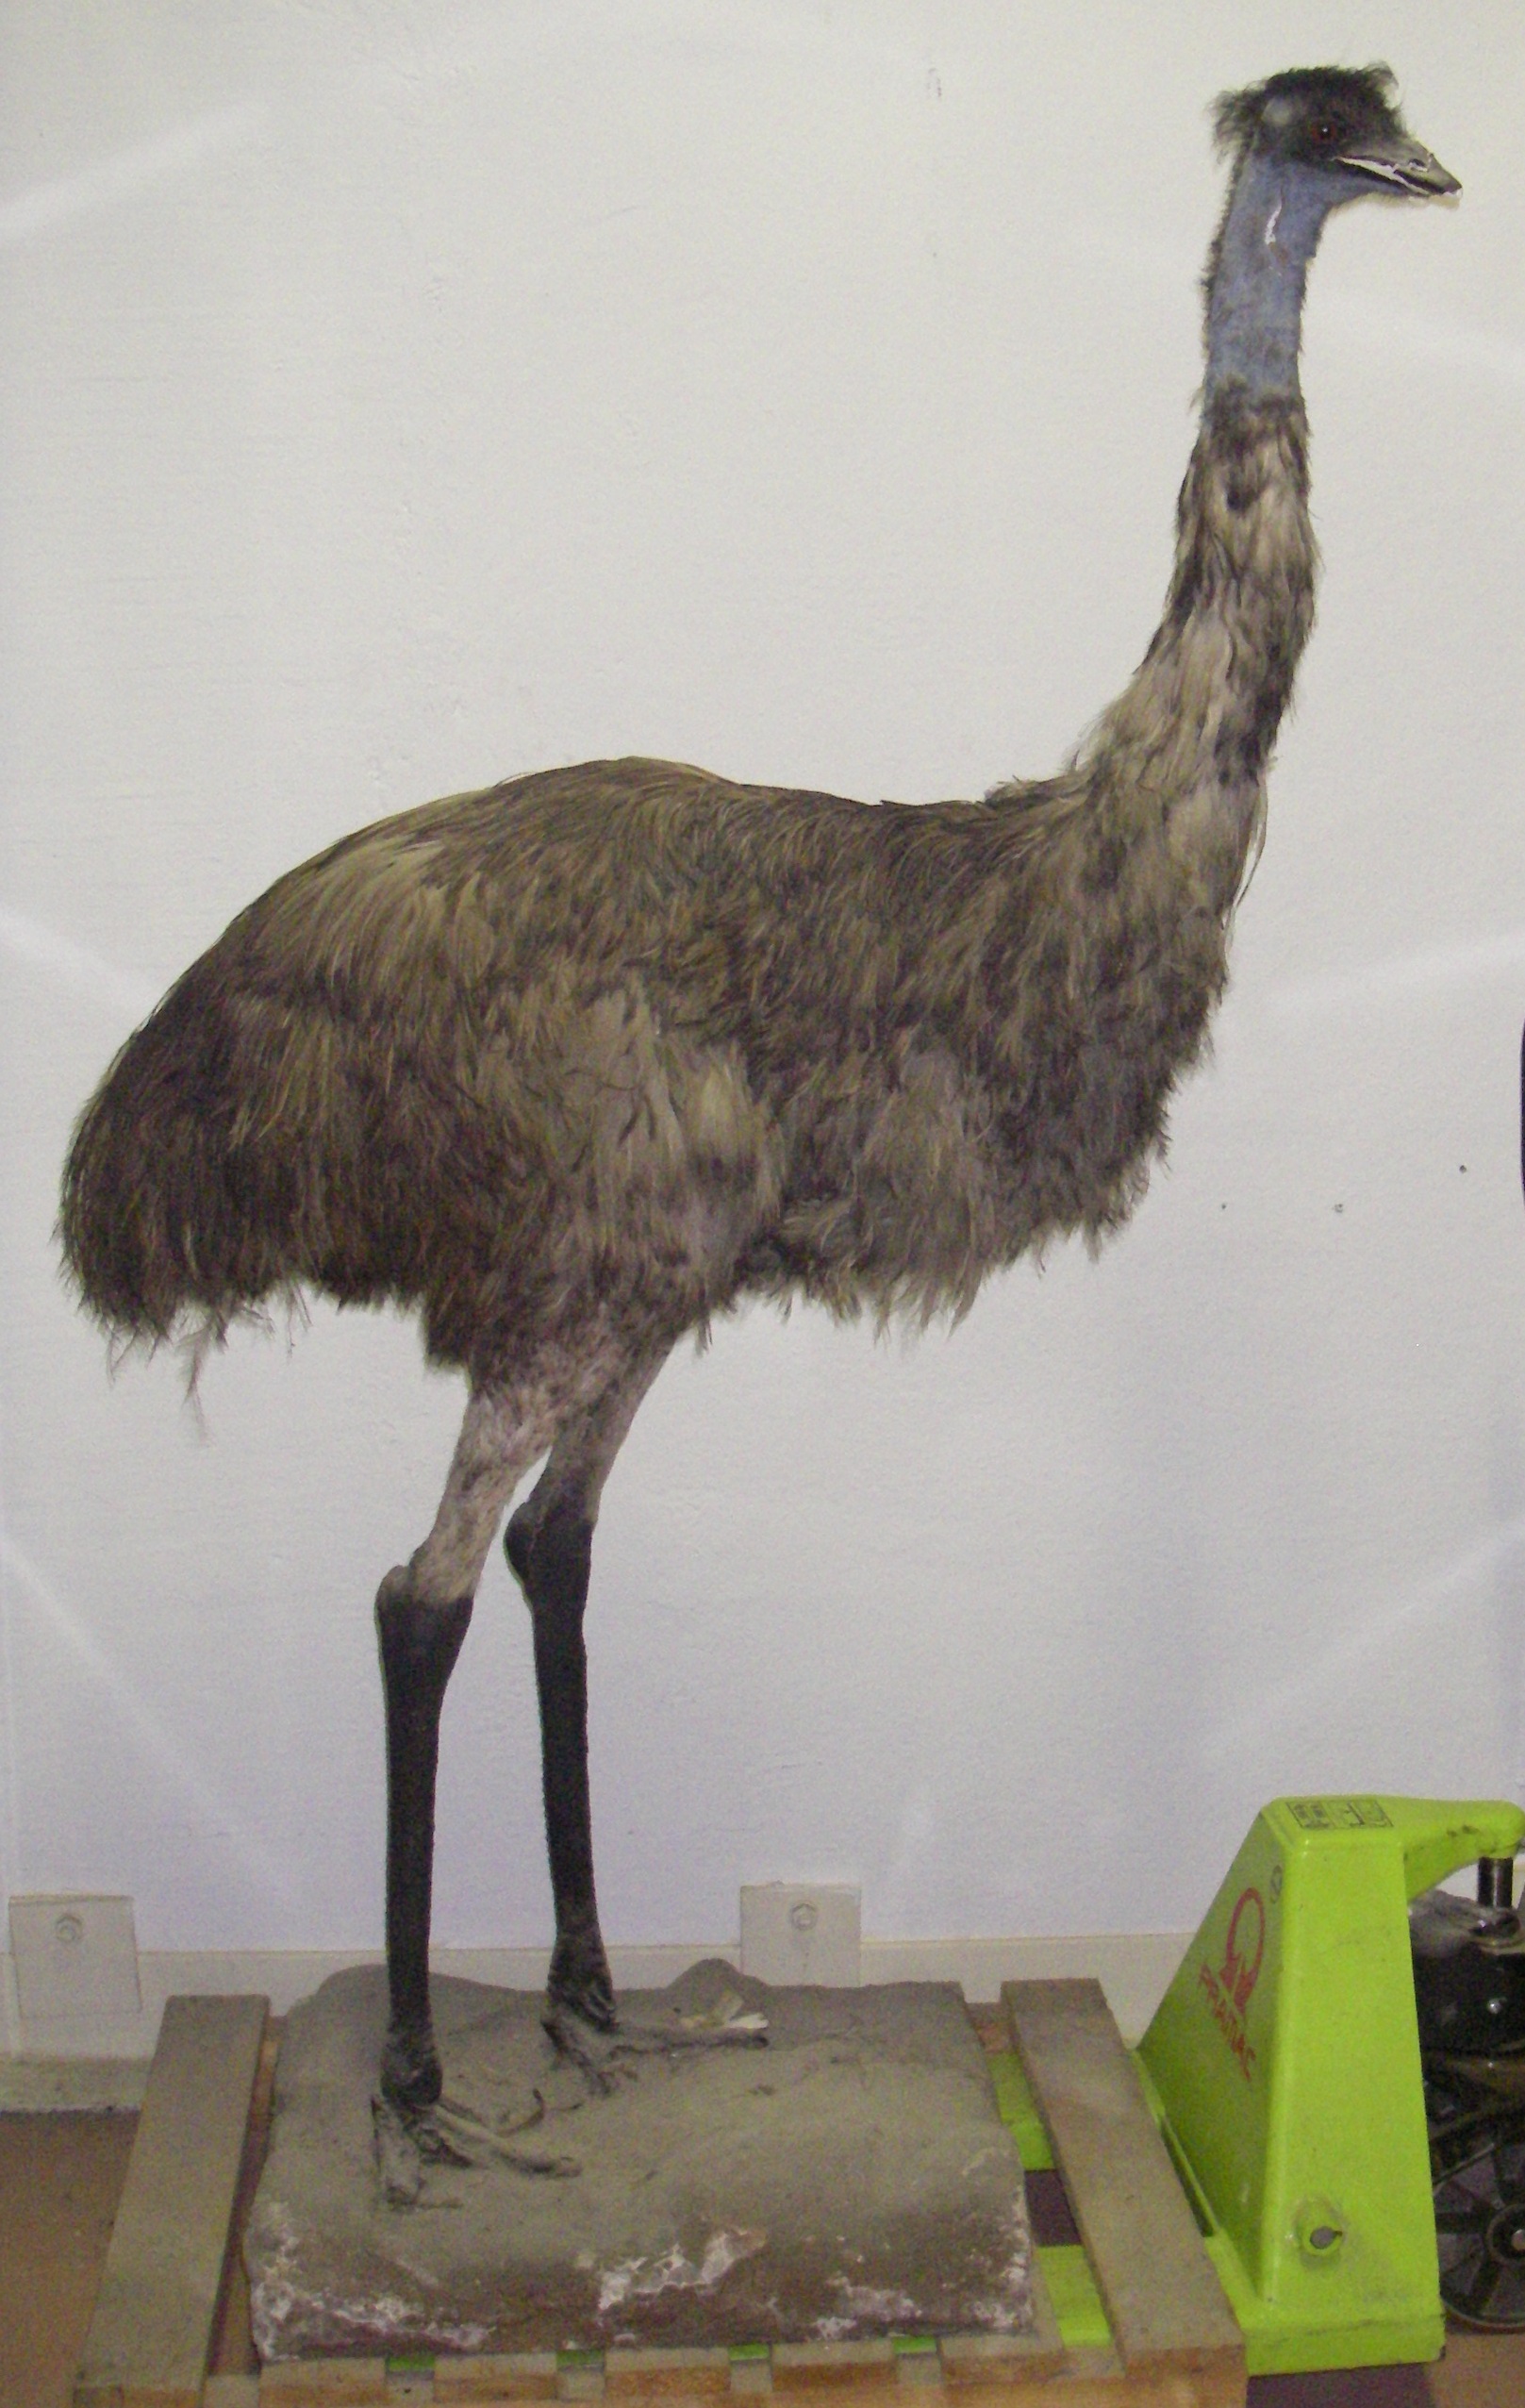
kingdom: Animalia
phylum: Chordata
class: Aves
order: Casuariiformes
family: Dromaiidae
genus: Dromaius
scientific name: Dromaius novaehollandiae
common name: Emu
